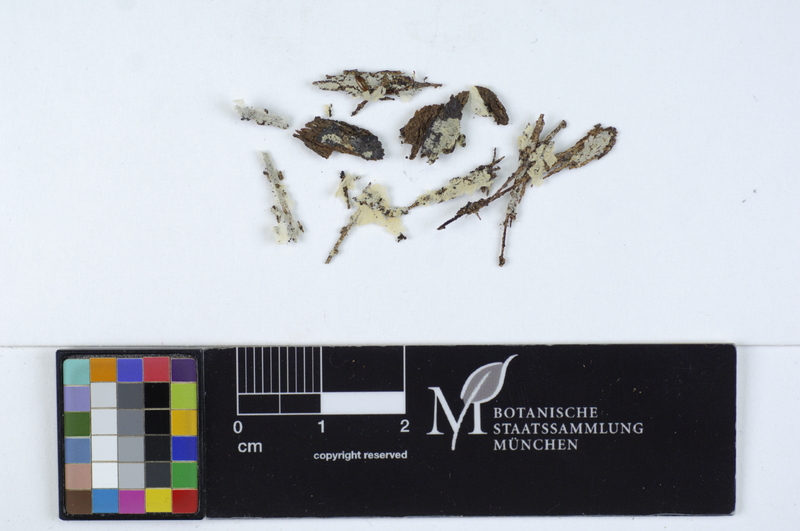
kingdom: Fungi
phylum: Basidiomycota
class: Agaricomycetes
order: Agaricales
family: Stephanosporaceae
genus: Cristinia
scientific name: Cristinia rhenana
